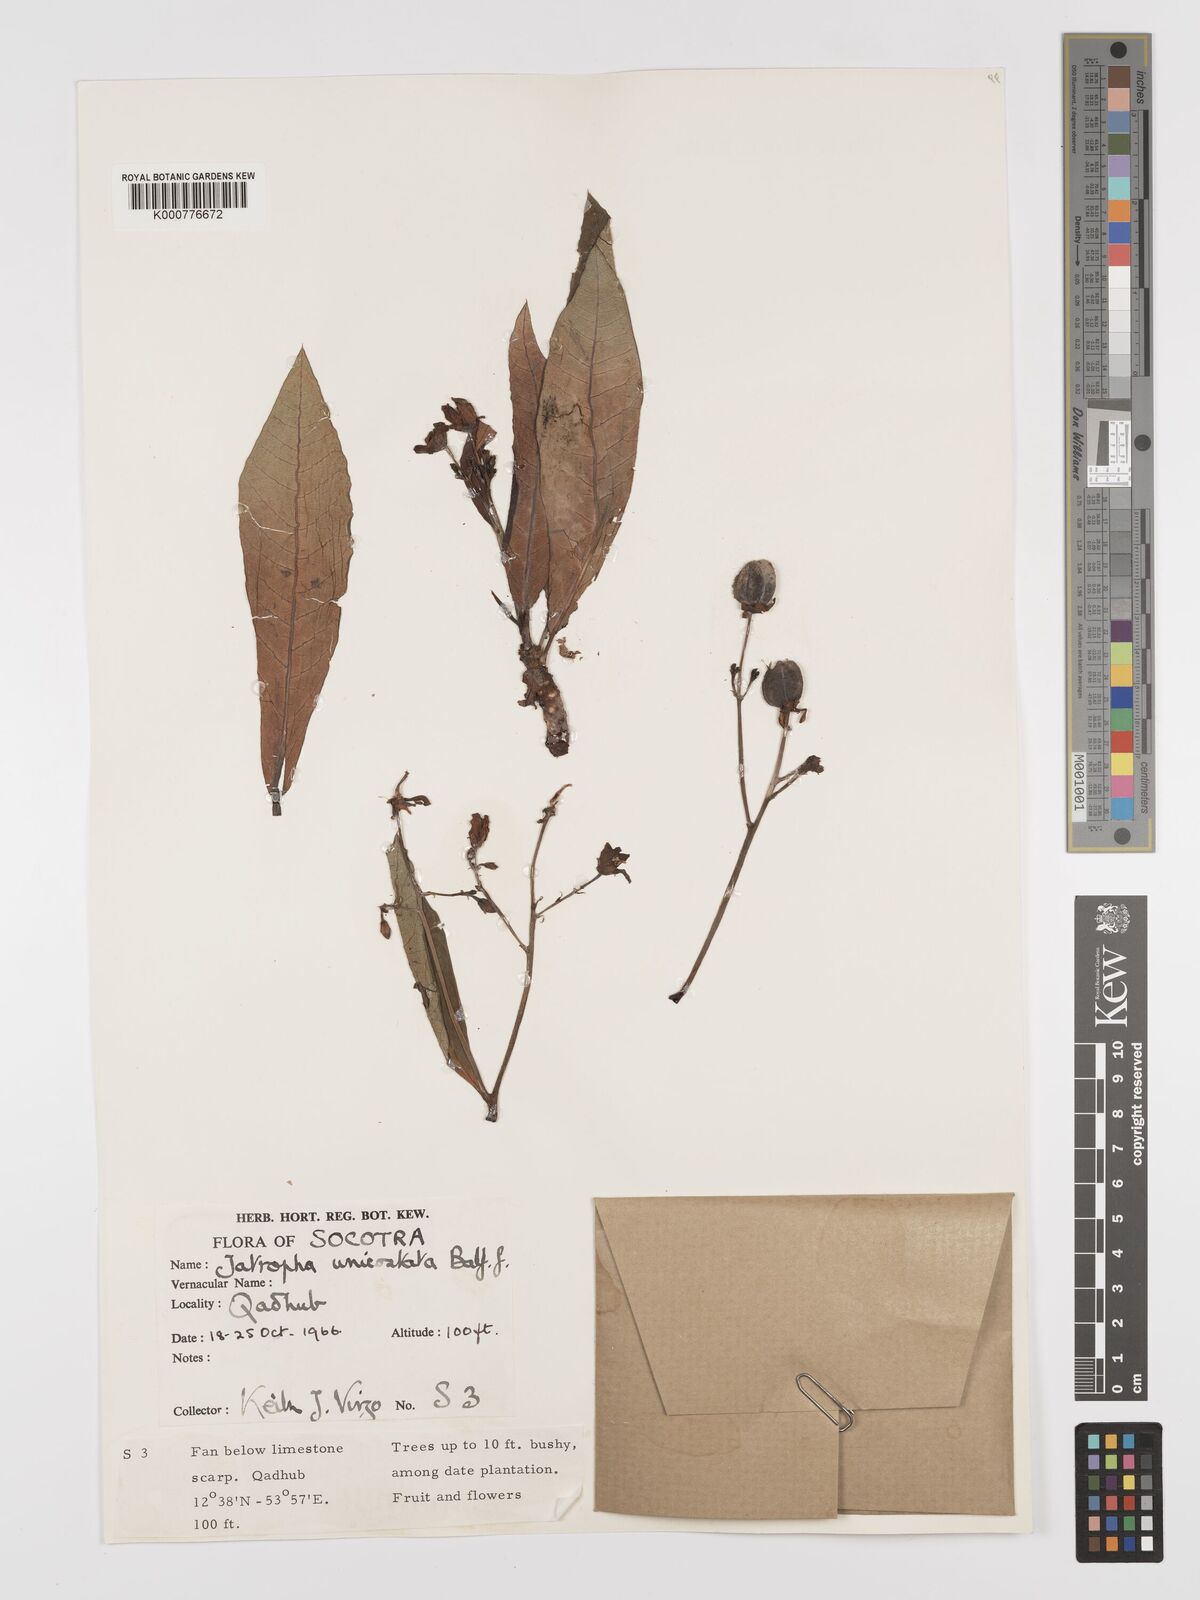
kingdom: Plantae
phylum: Tracheophyta
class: Magnoliopsida
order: Malpighiales
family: Euphorbiaceae
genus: Jatropha
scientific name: Jatropha unicostata
